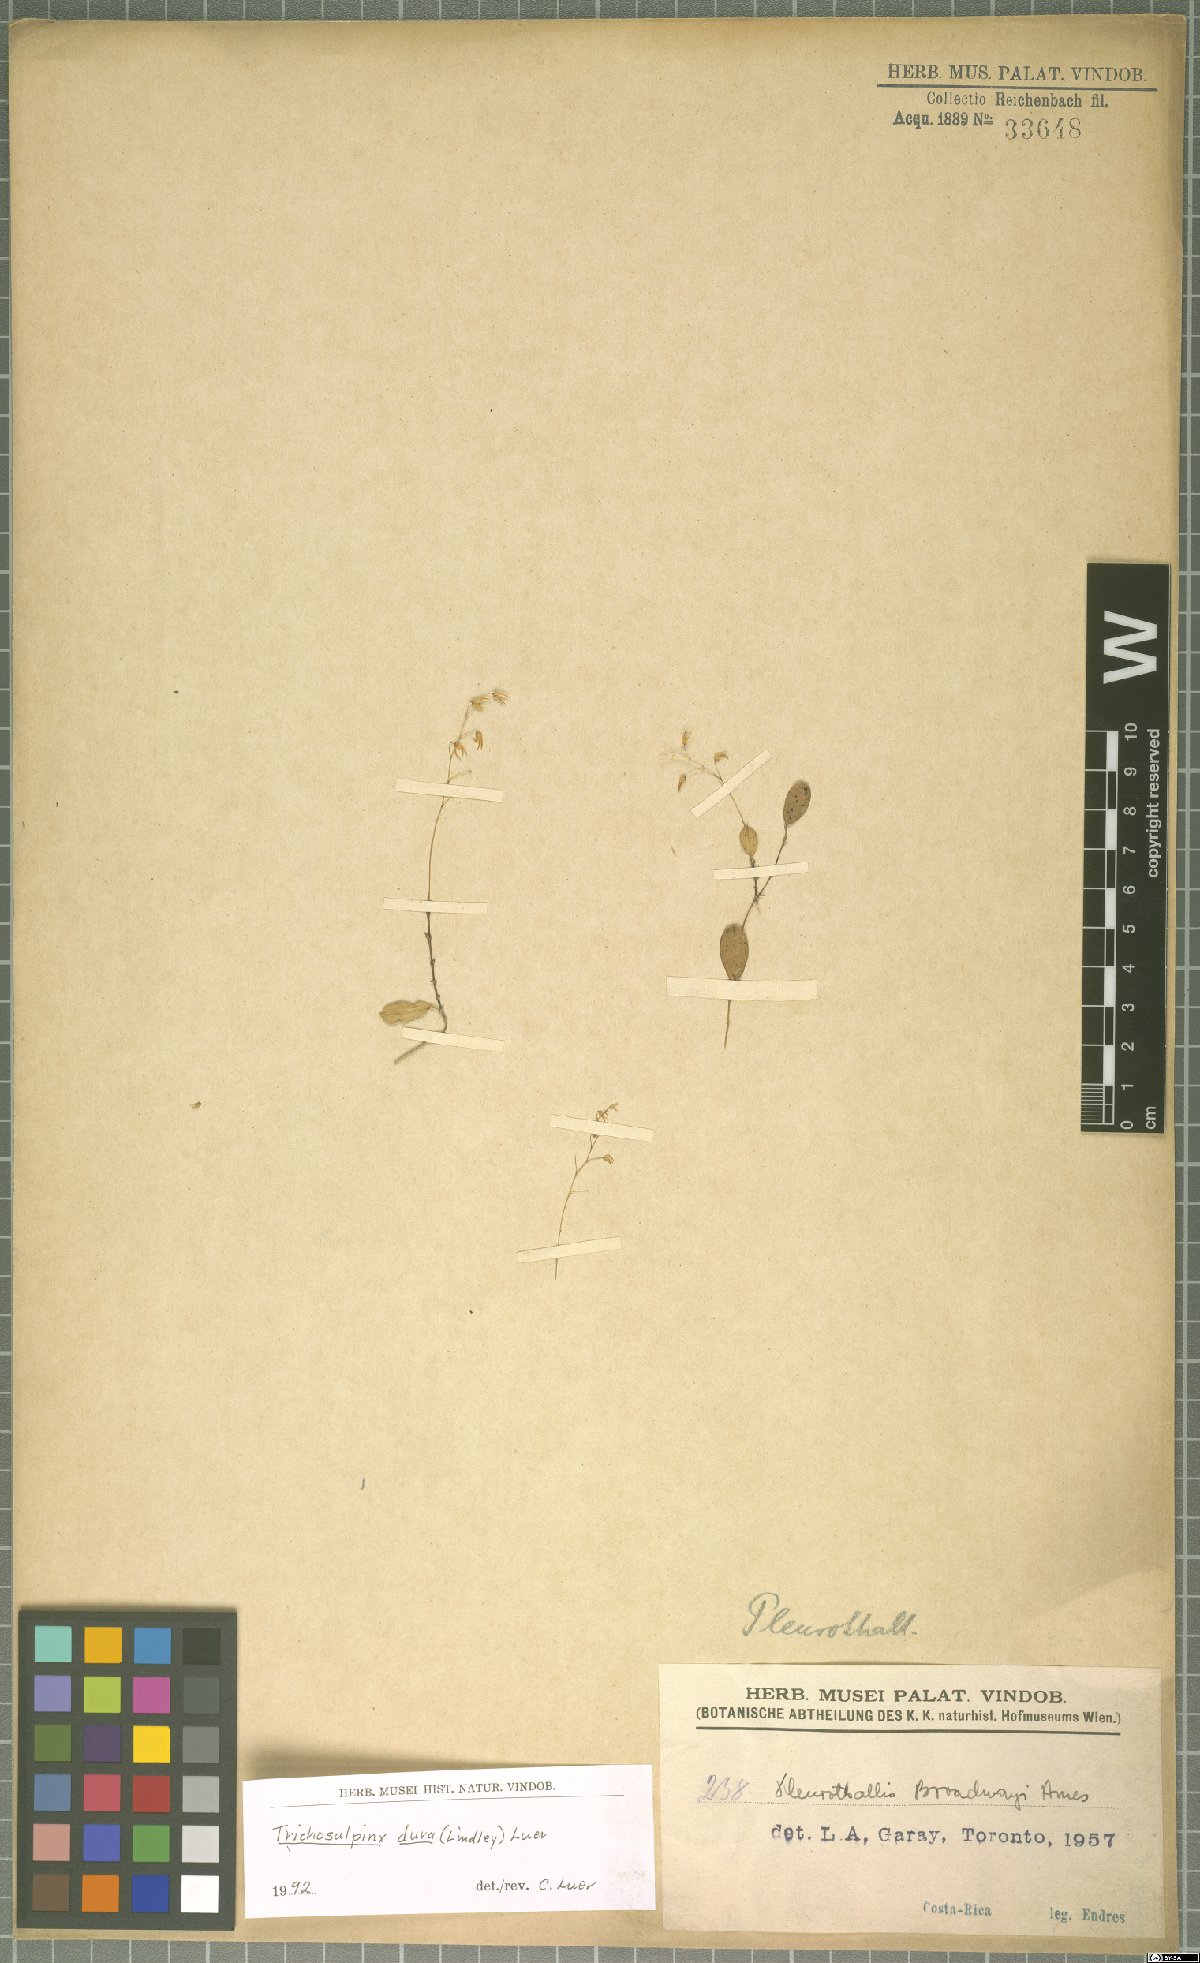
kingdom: Plantae
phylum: Tracheophyta
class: Liliopsida
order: Asparagales
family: Orchidaceae
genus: Trichosalpinx
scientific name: Trichosalpinx dura
